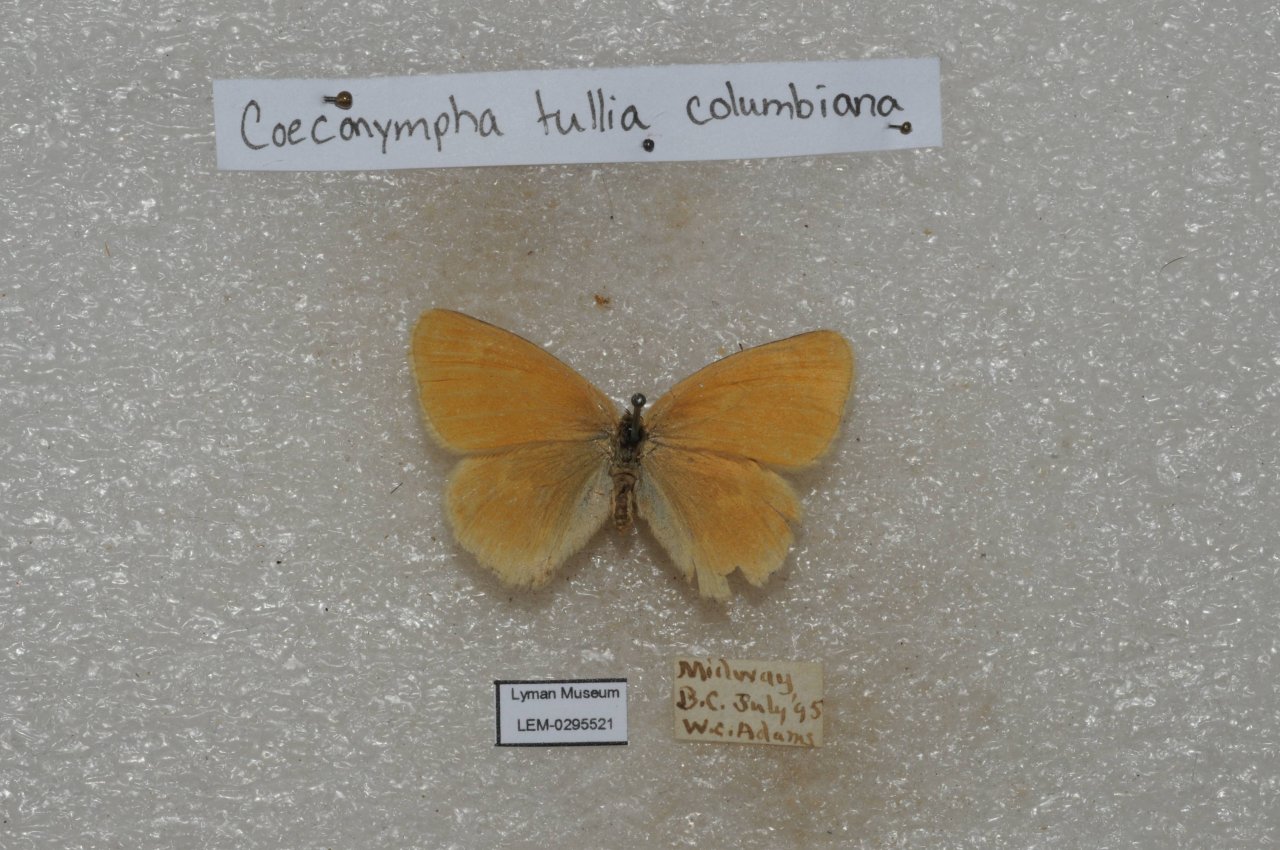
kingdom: Animalia
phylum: Arthropoda
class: Insecta
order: Lepidoptera
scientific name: Lepidoptera
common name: Butterflies
